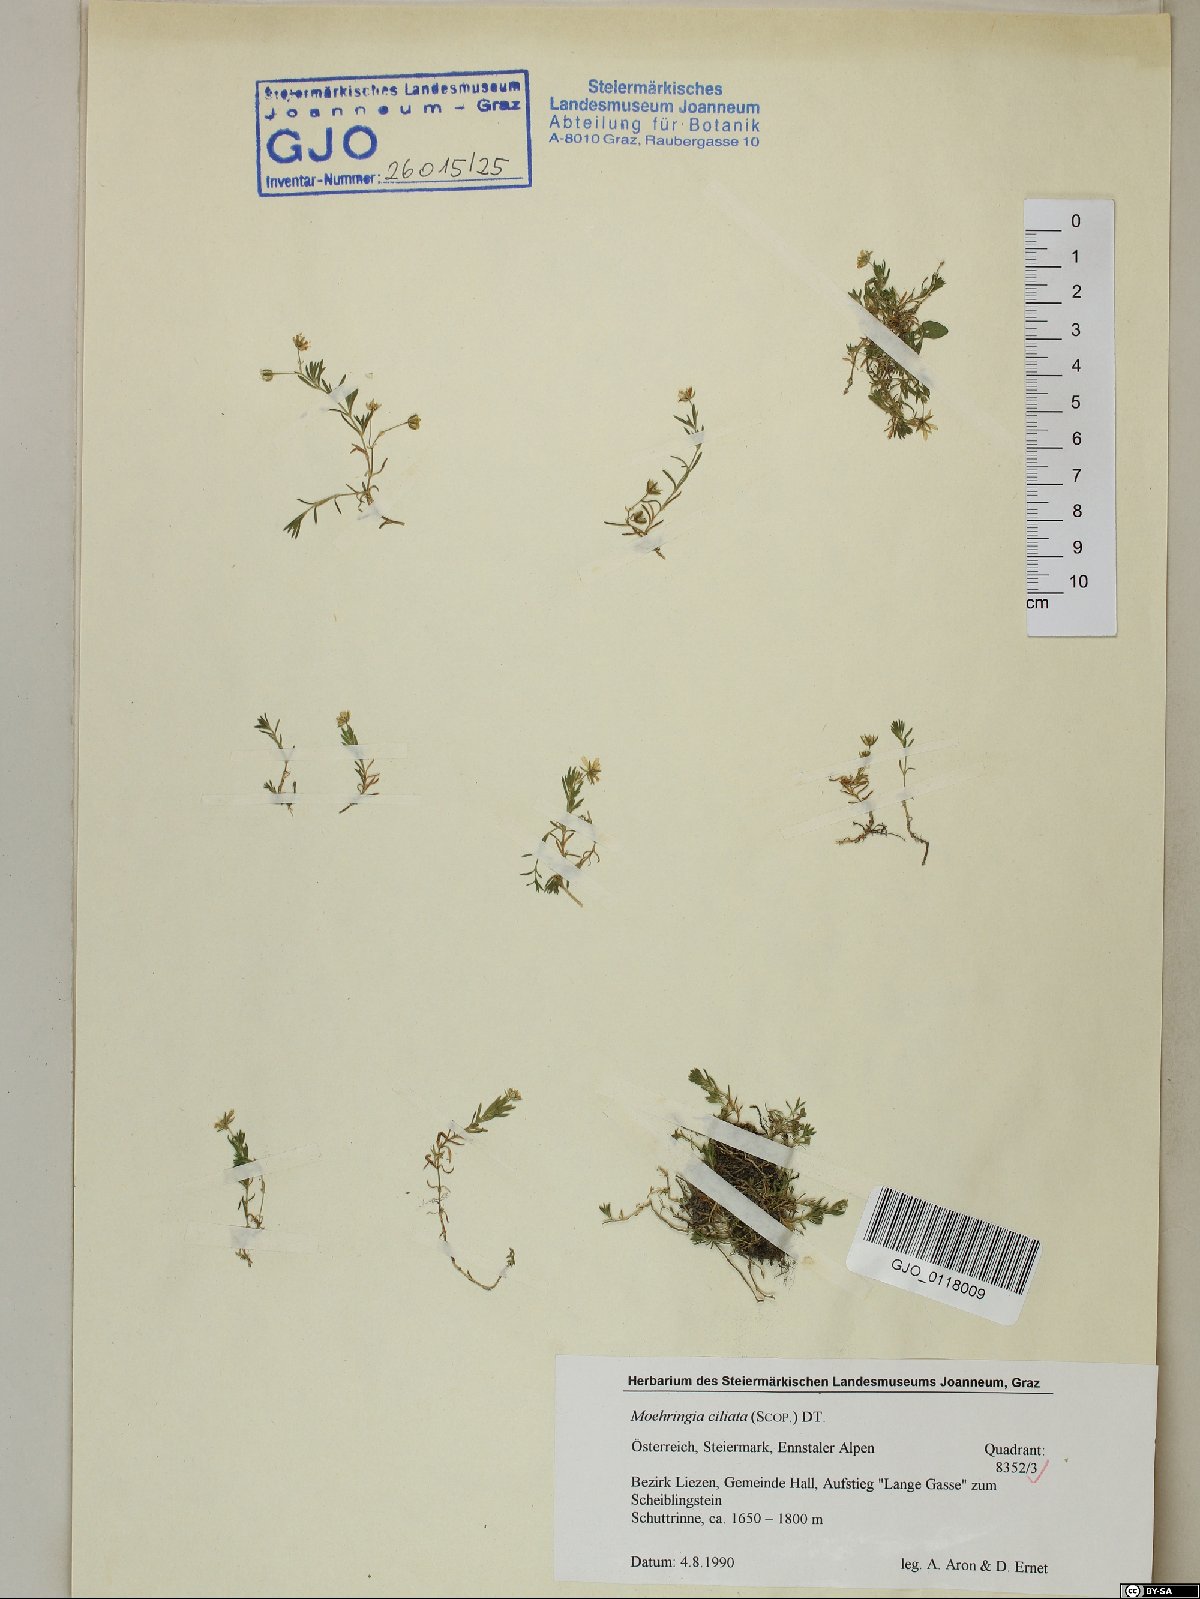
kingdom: Plantae
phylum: Tracheophyta
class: Magnoliopsida
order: Caryophyllales
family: Caryophyllaceae
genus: Moehringia
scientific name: Moehringia ciliata
